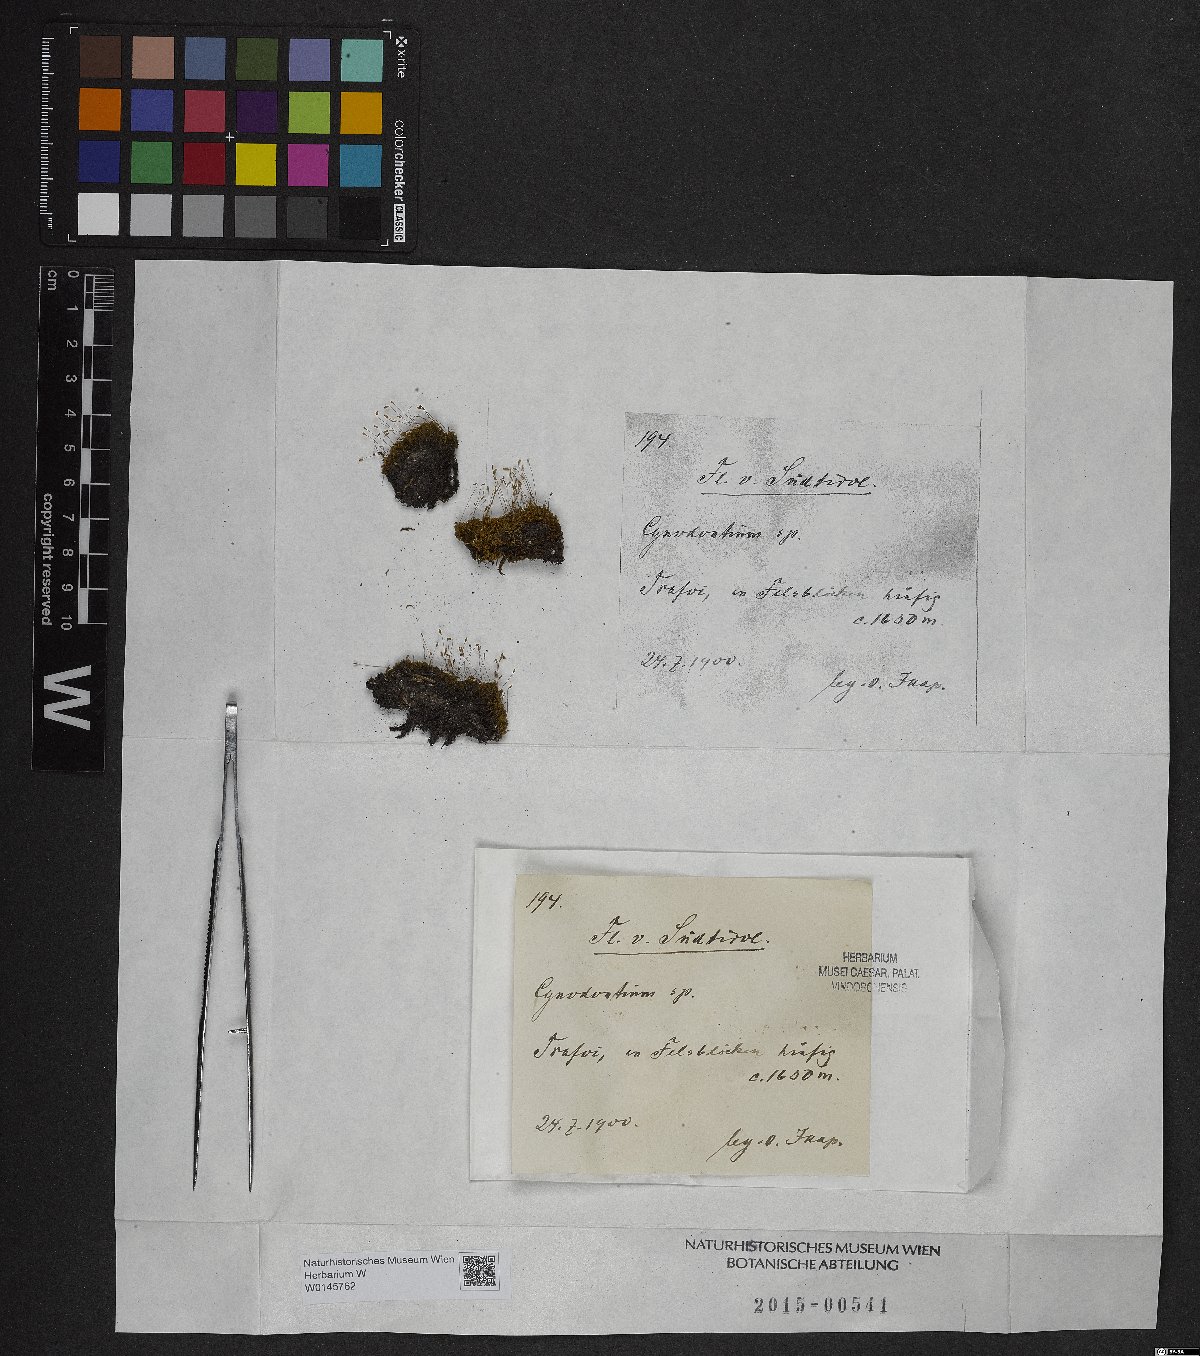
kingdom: Plantae
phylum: Bryophyta
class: Bryopsida
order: Dicranales
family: Rhabdoweisiaceae
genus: Cynodontium
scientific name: Cynodontium
